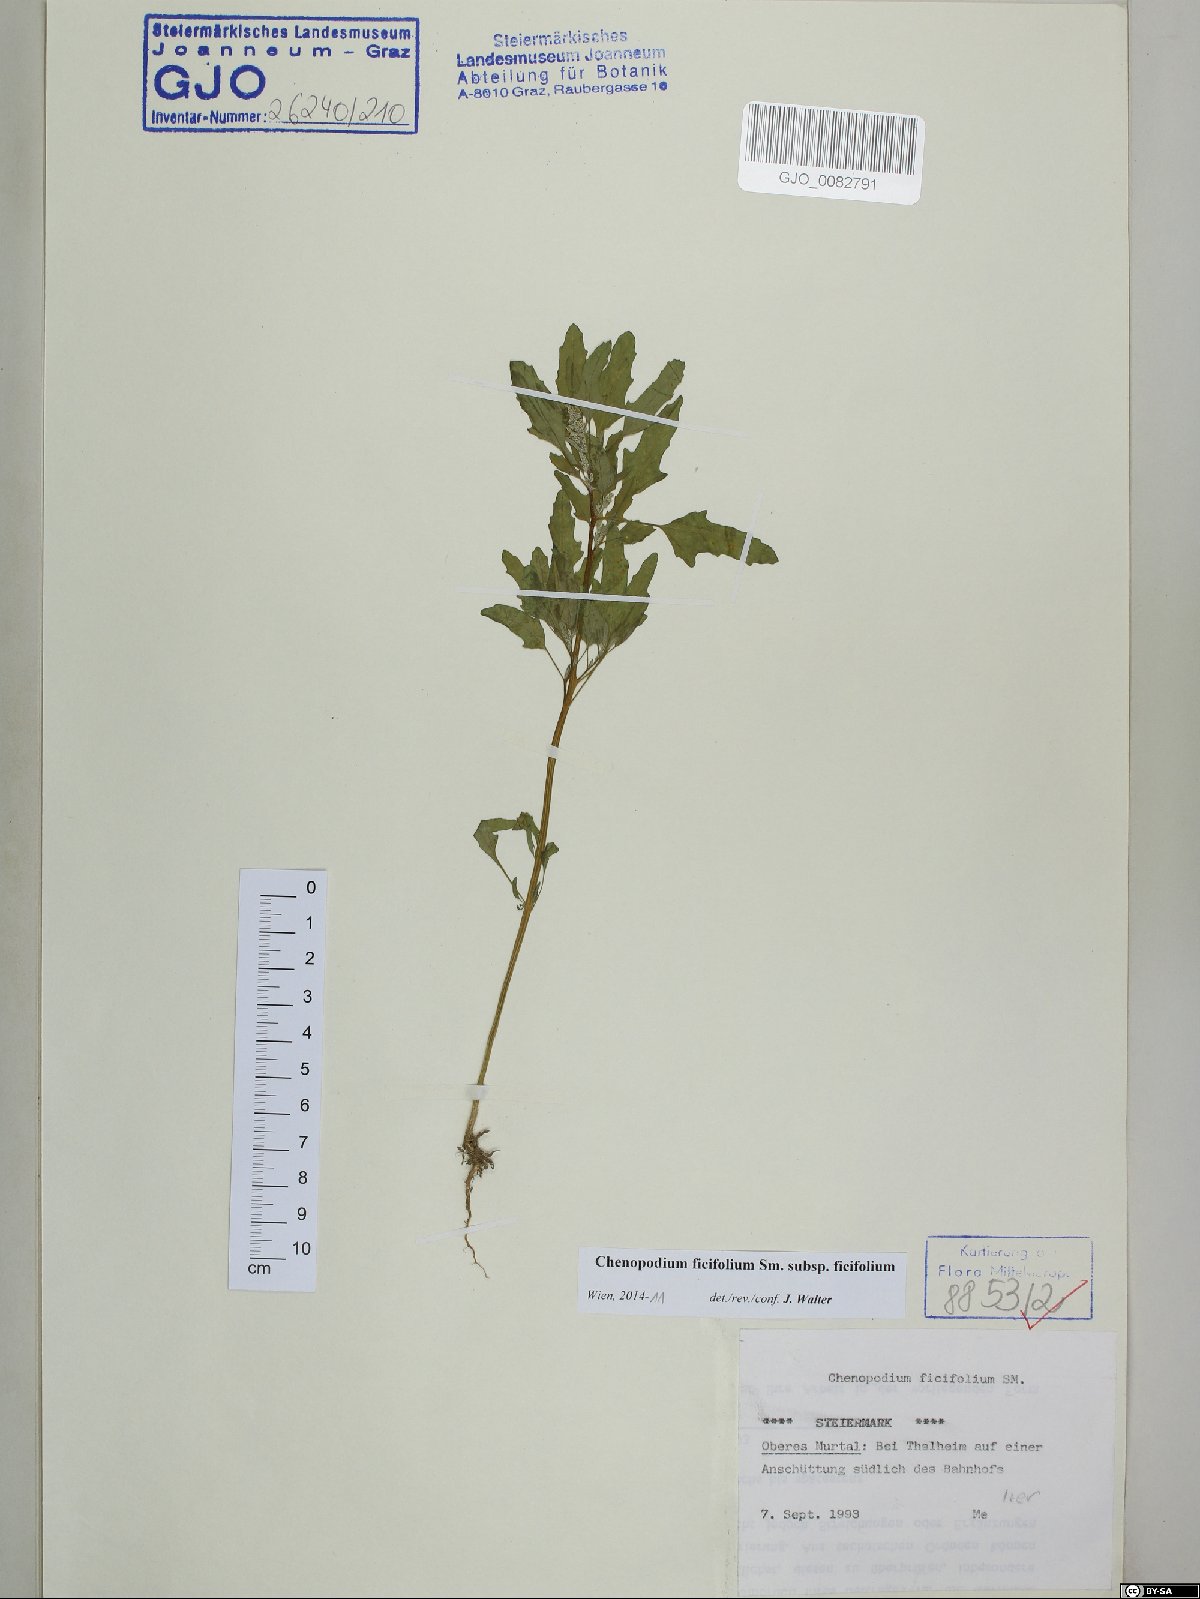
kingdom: Plantae
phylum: Tracheophyta
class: Magnoliopsida
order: Caryophyllales
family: Amaranthaceae
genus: Chenopodium
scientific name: Chenopodium ficifolium
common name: Fig-leaved goosefoot
